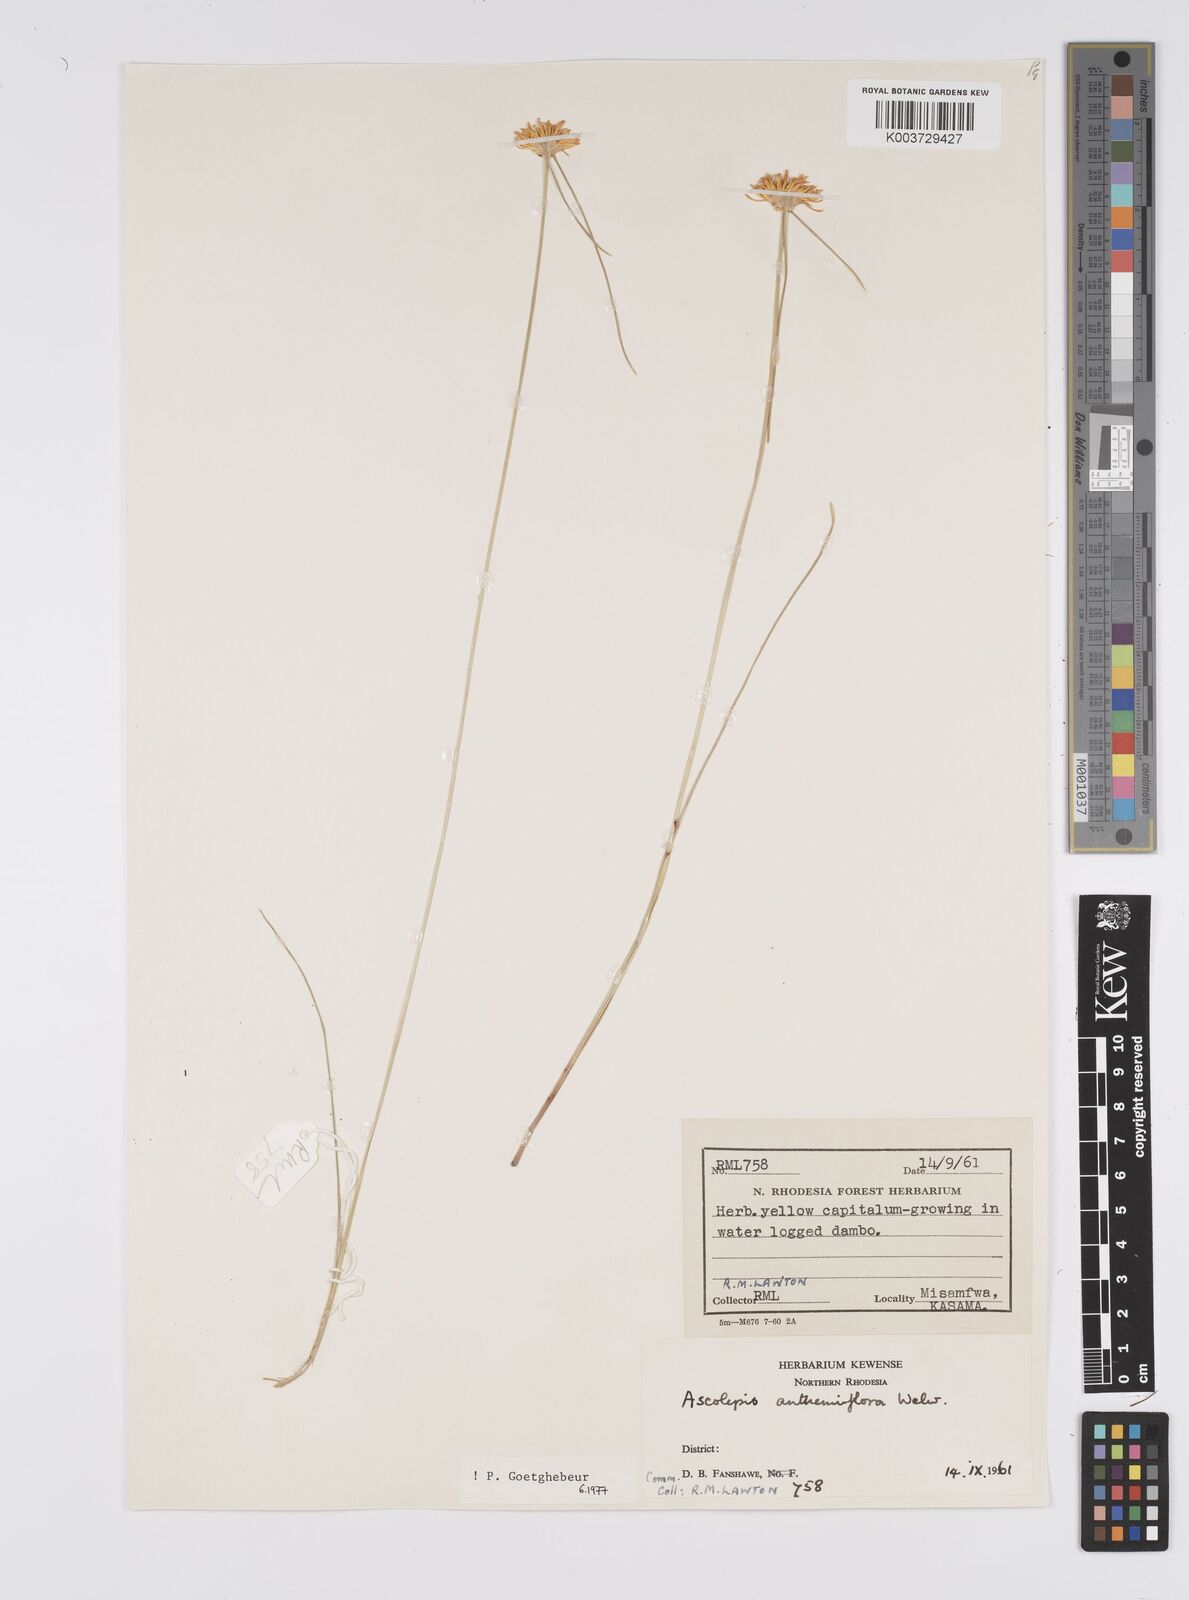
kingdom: Plantae
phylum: Tracheophyta
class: Liliopsida
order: Poales
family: Cyperaceae
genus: Cyperus
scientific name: Cyperus
